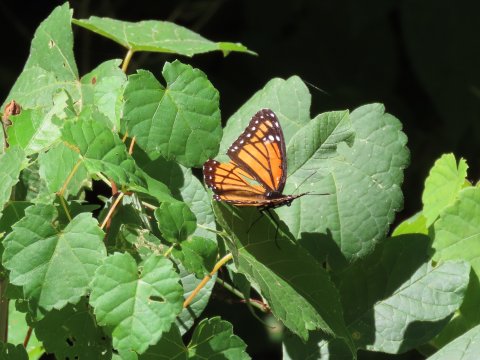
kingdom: Animalia
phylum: Arthropoda
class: Insecta
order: Lepidoptera
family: Nymphalidae
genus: Limenitis
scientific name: Limenitis archippus
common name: Viceroy
